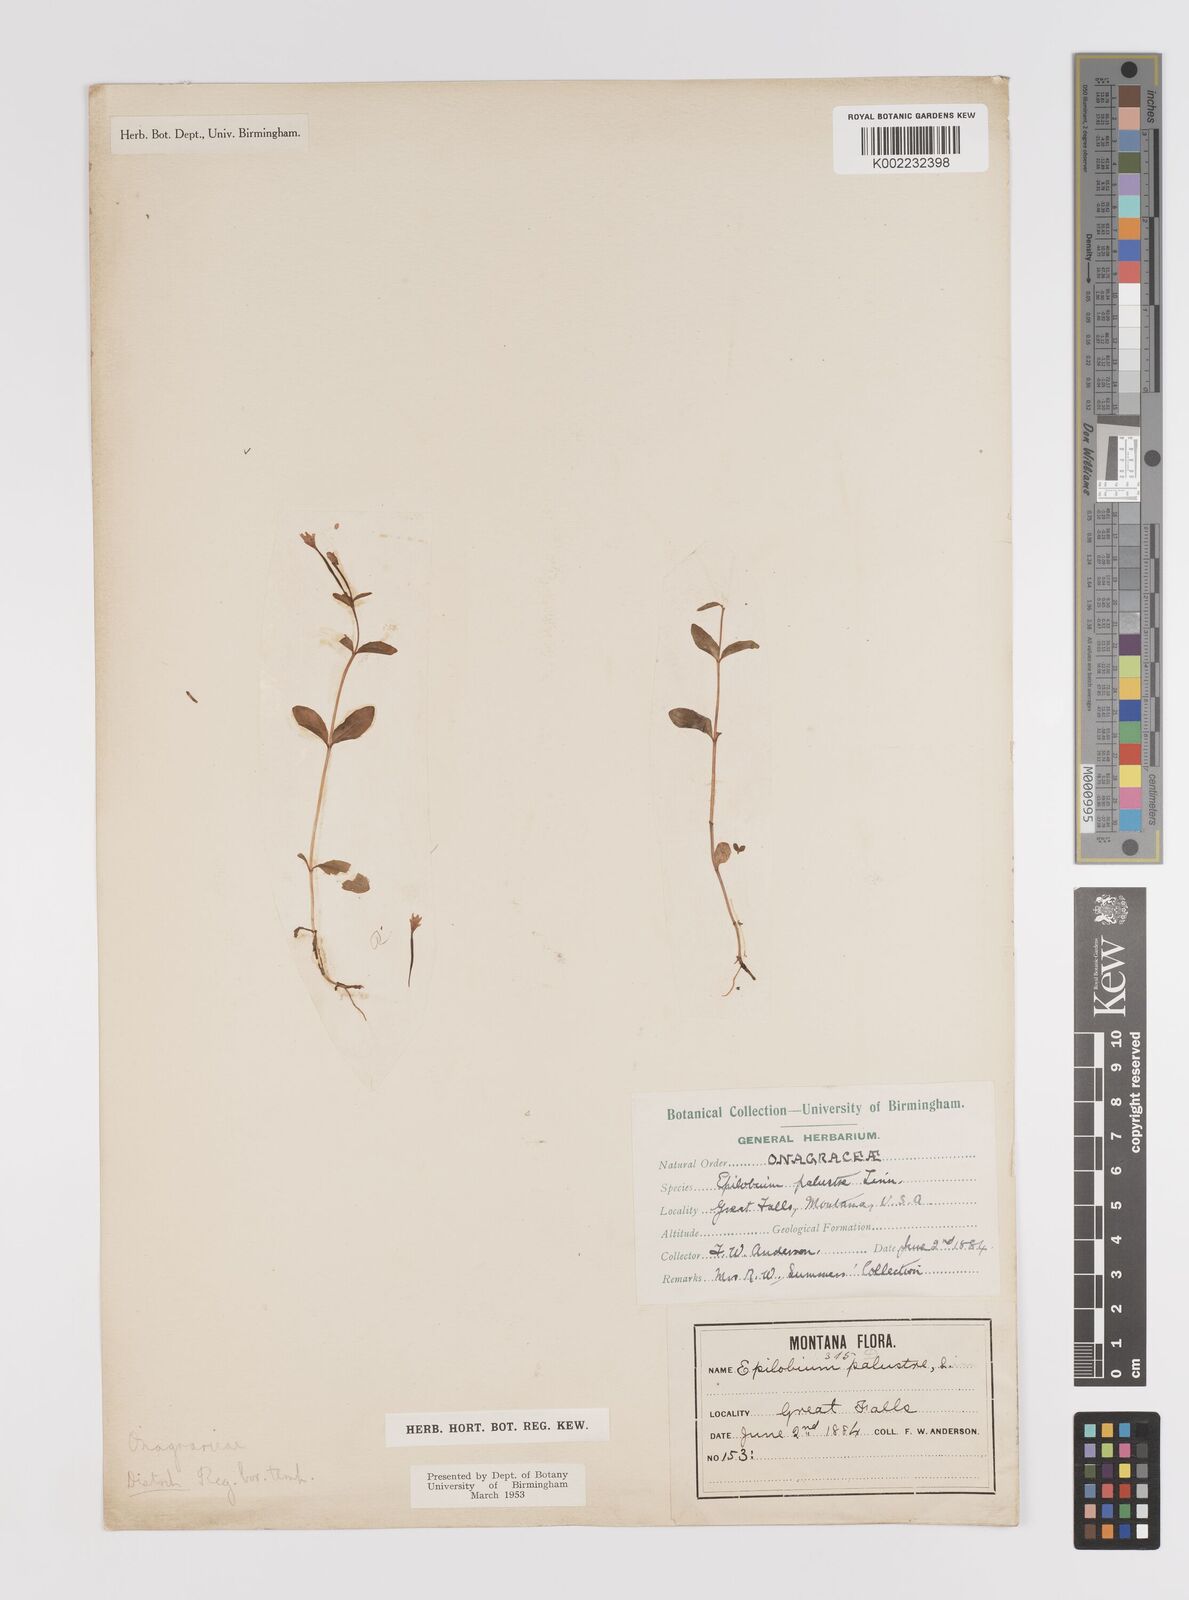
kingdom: Plantae
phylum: Tracheophyta
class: Magnoliopsida
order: Myrtales
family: Onagraceae
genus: Epilobium
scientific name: Epilobium palustre
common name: Marsh willowherb
